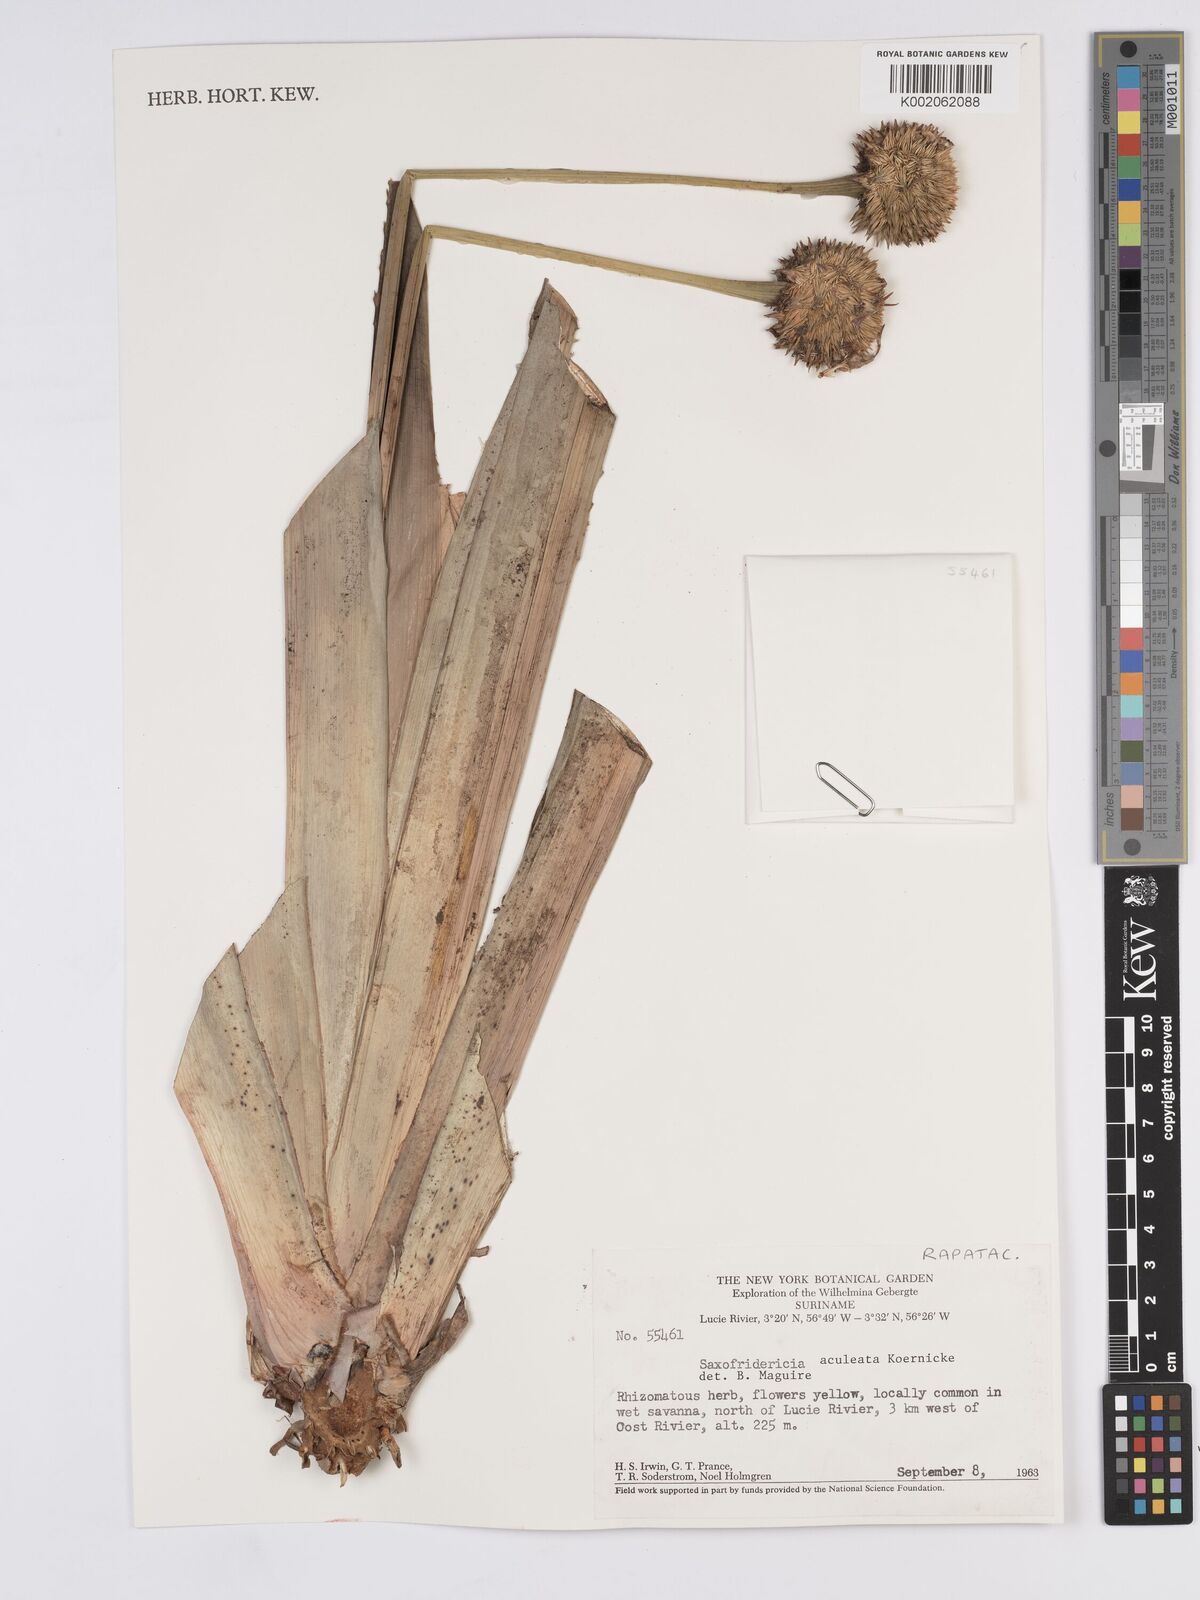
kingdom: Plantae
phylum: Tracheophyta
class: Liliopsida
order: Poales
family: Rapateaceae
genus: Saxofridericia
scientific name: Saxofridericia aculeata
